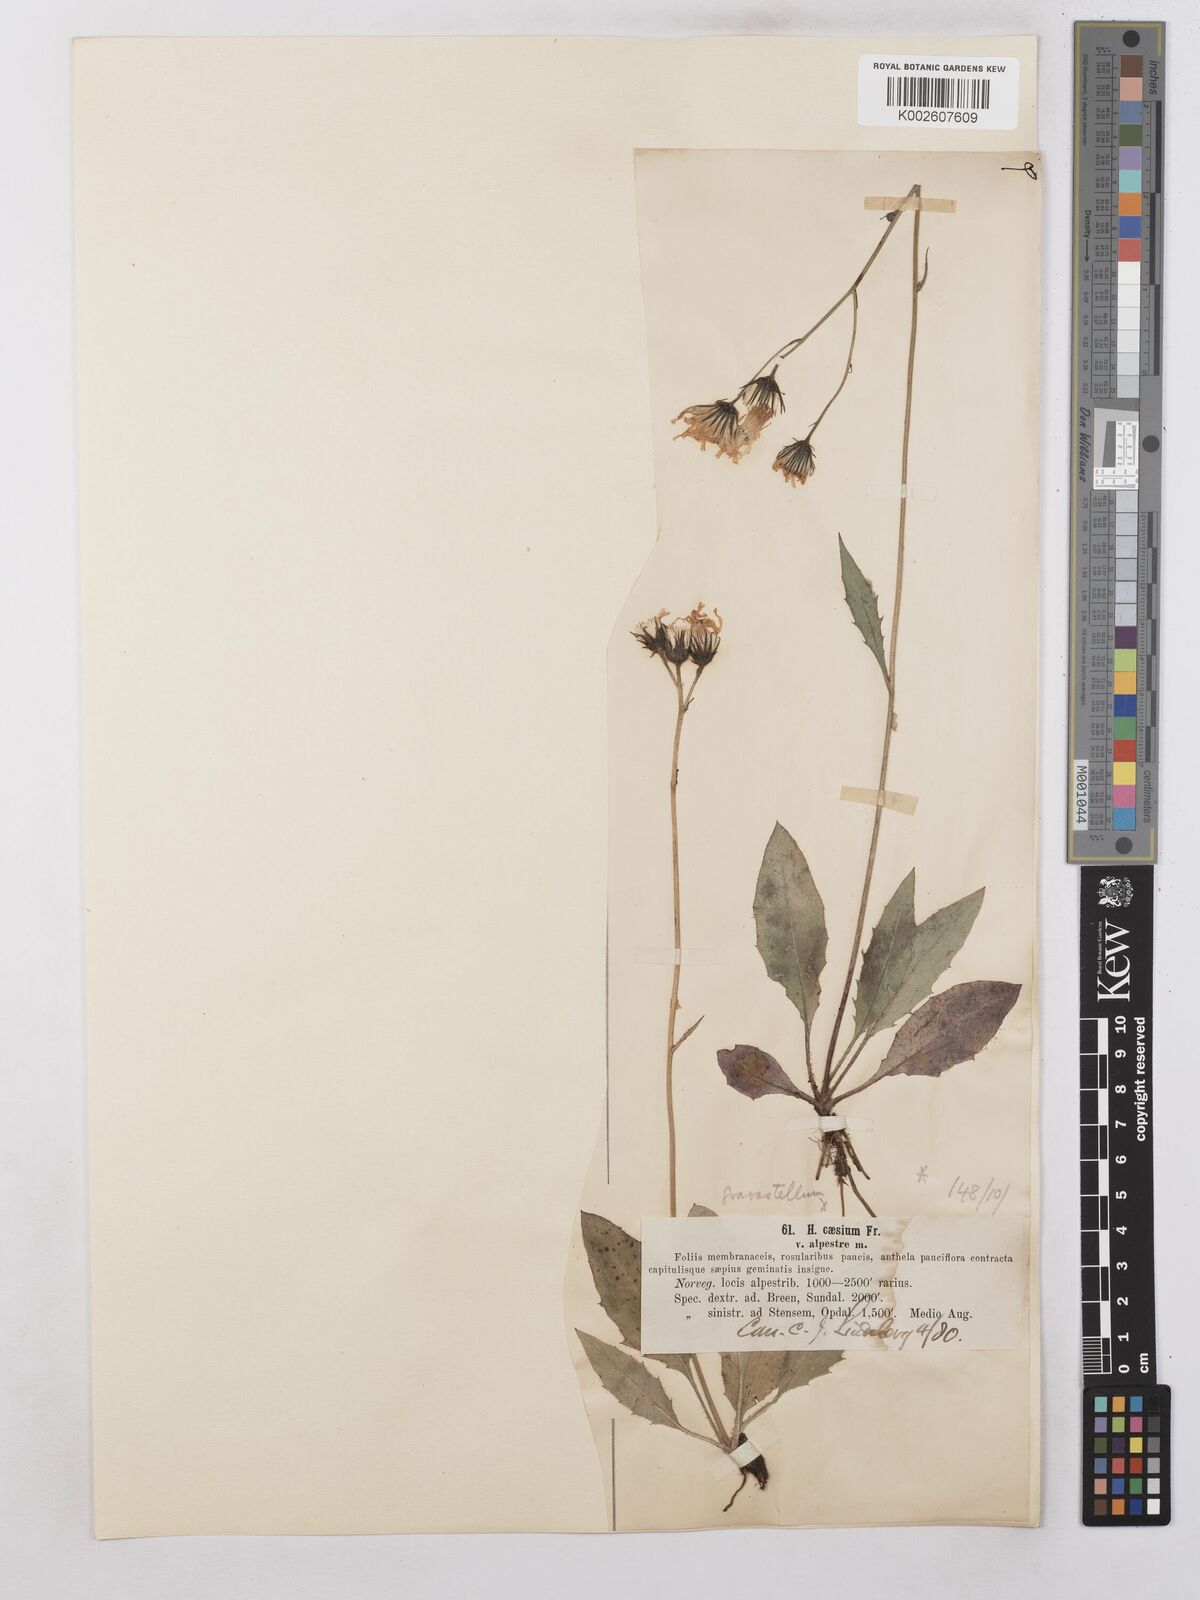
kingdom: Plantae
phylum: Tracheophyta
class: Magnoliopsida
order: Asterales
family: Asteraceae
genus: Hieracium
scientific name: Hieracium subramosum
